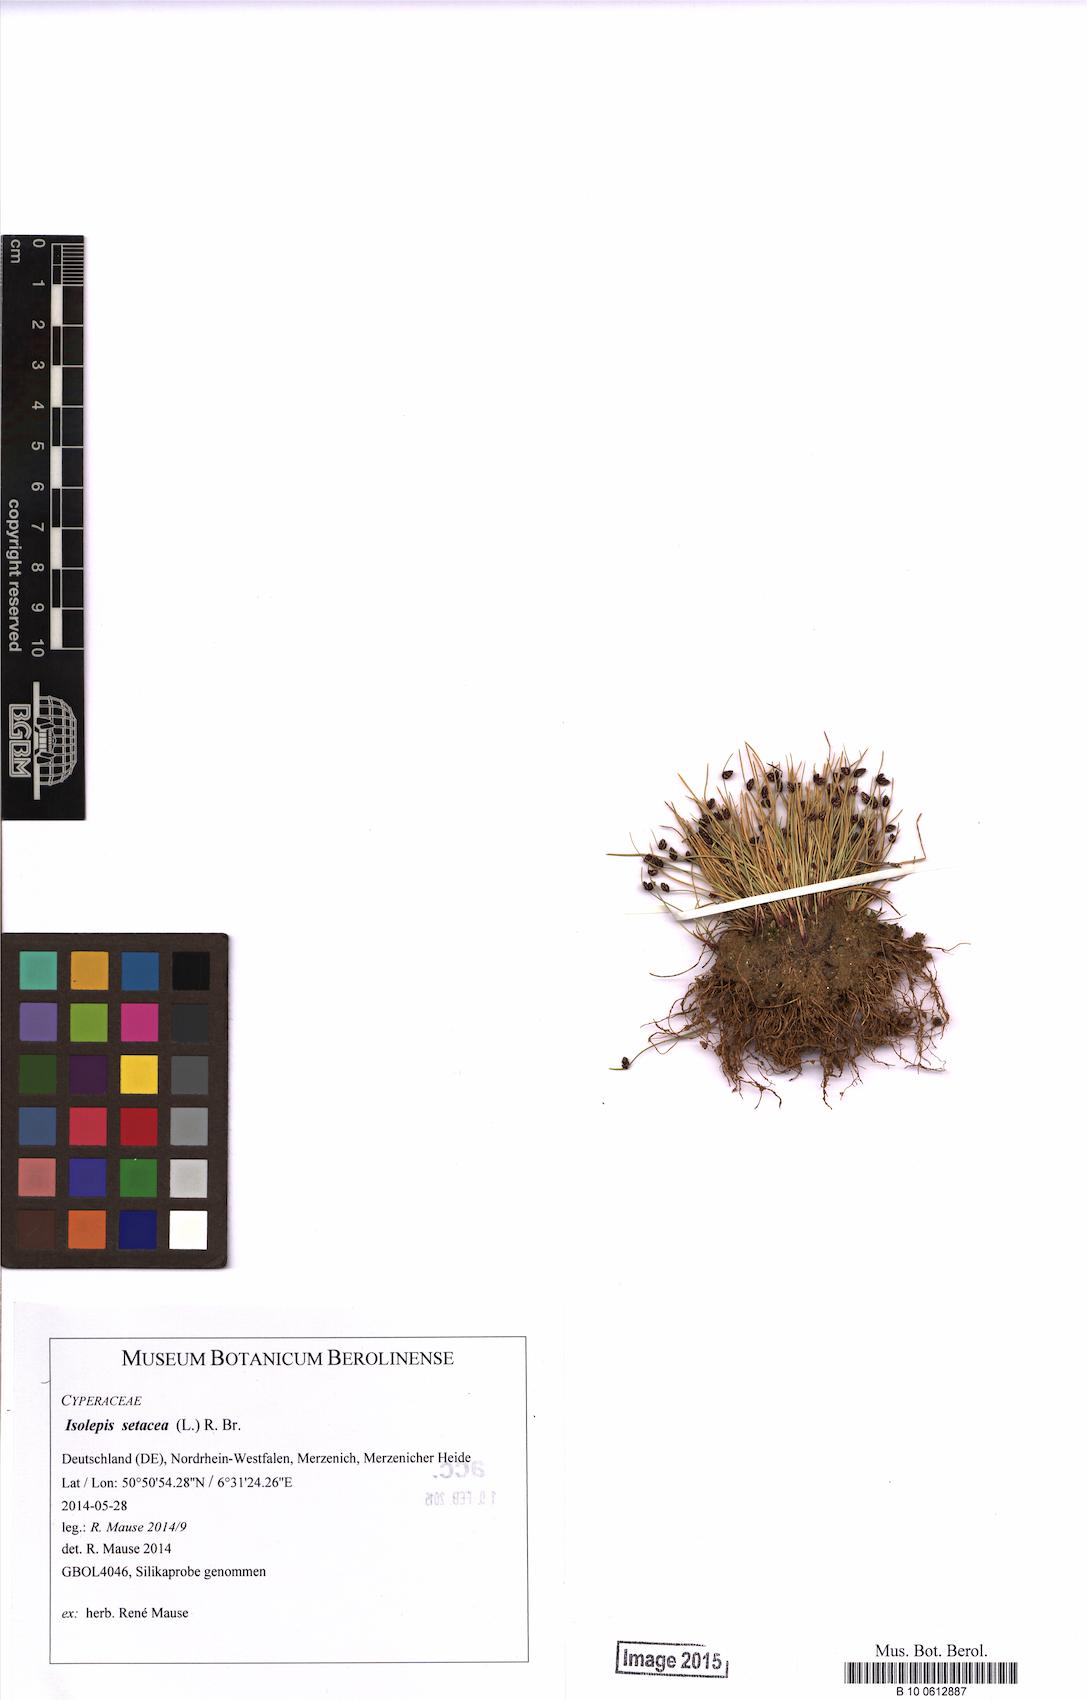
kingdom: Plantae
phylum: Tracheophyta
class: Liliopsida
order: Poales
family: Cyperaceae
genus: Isolepis
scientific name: Isolepis setacea
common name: Bristle club-rush
